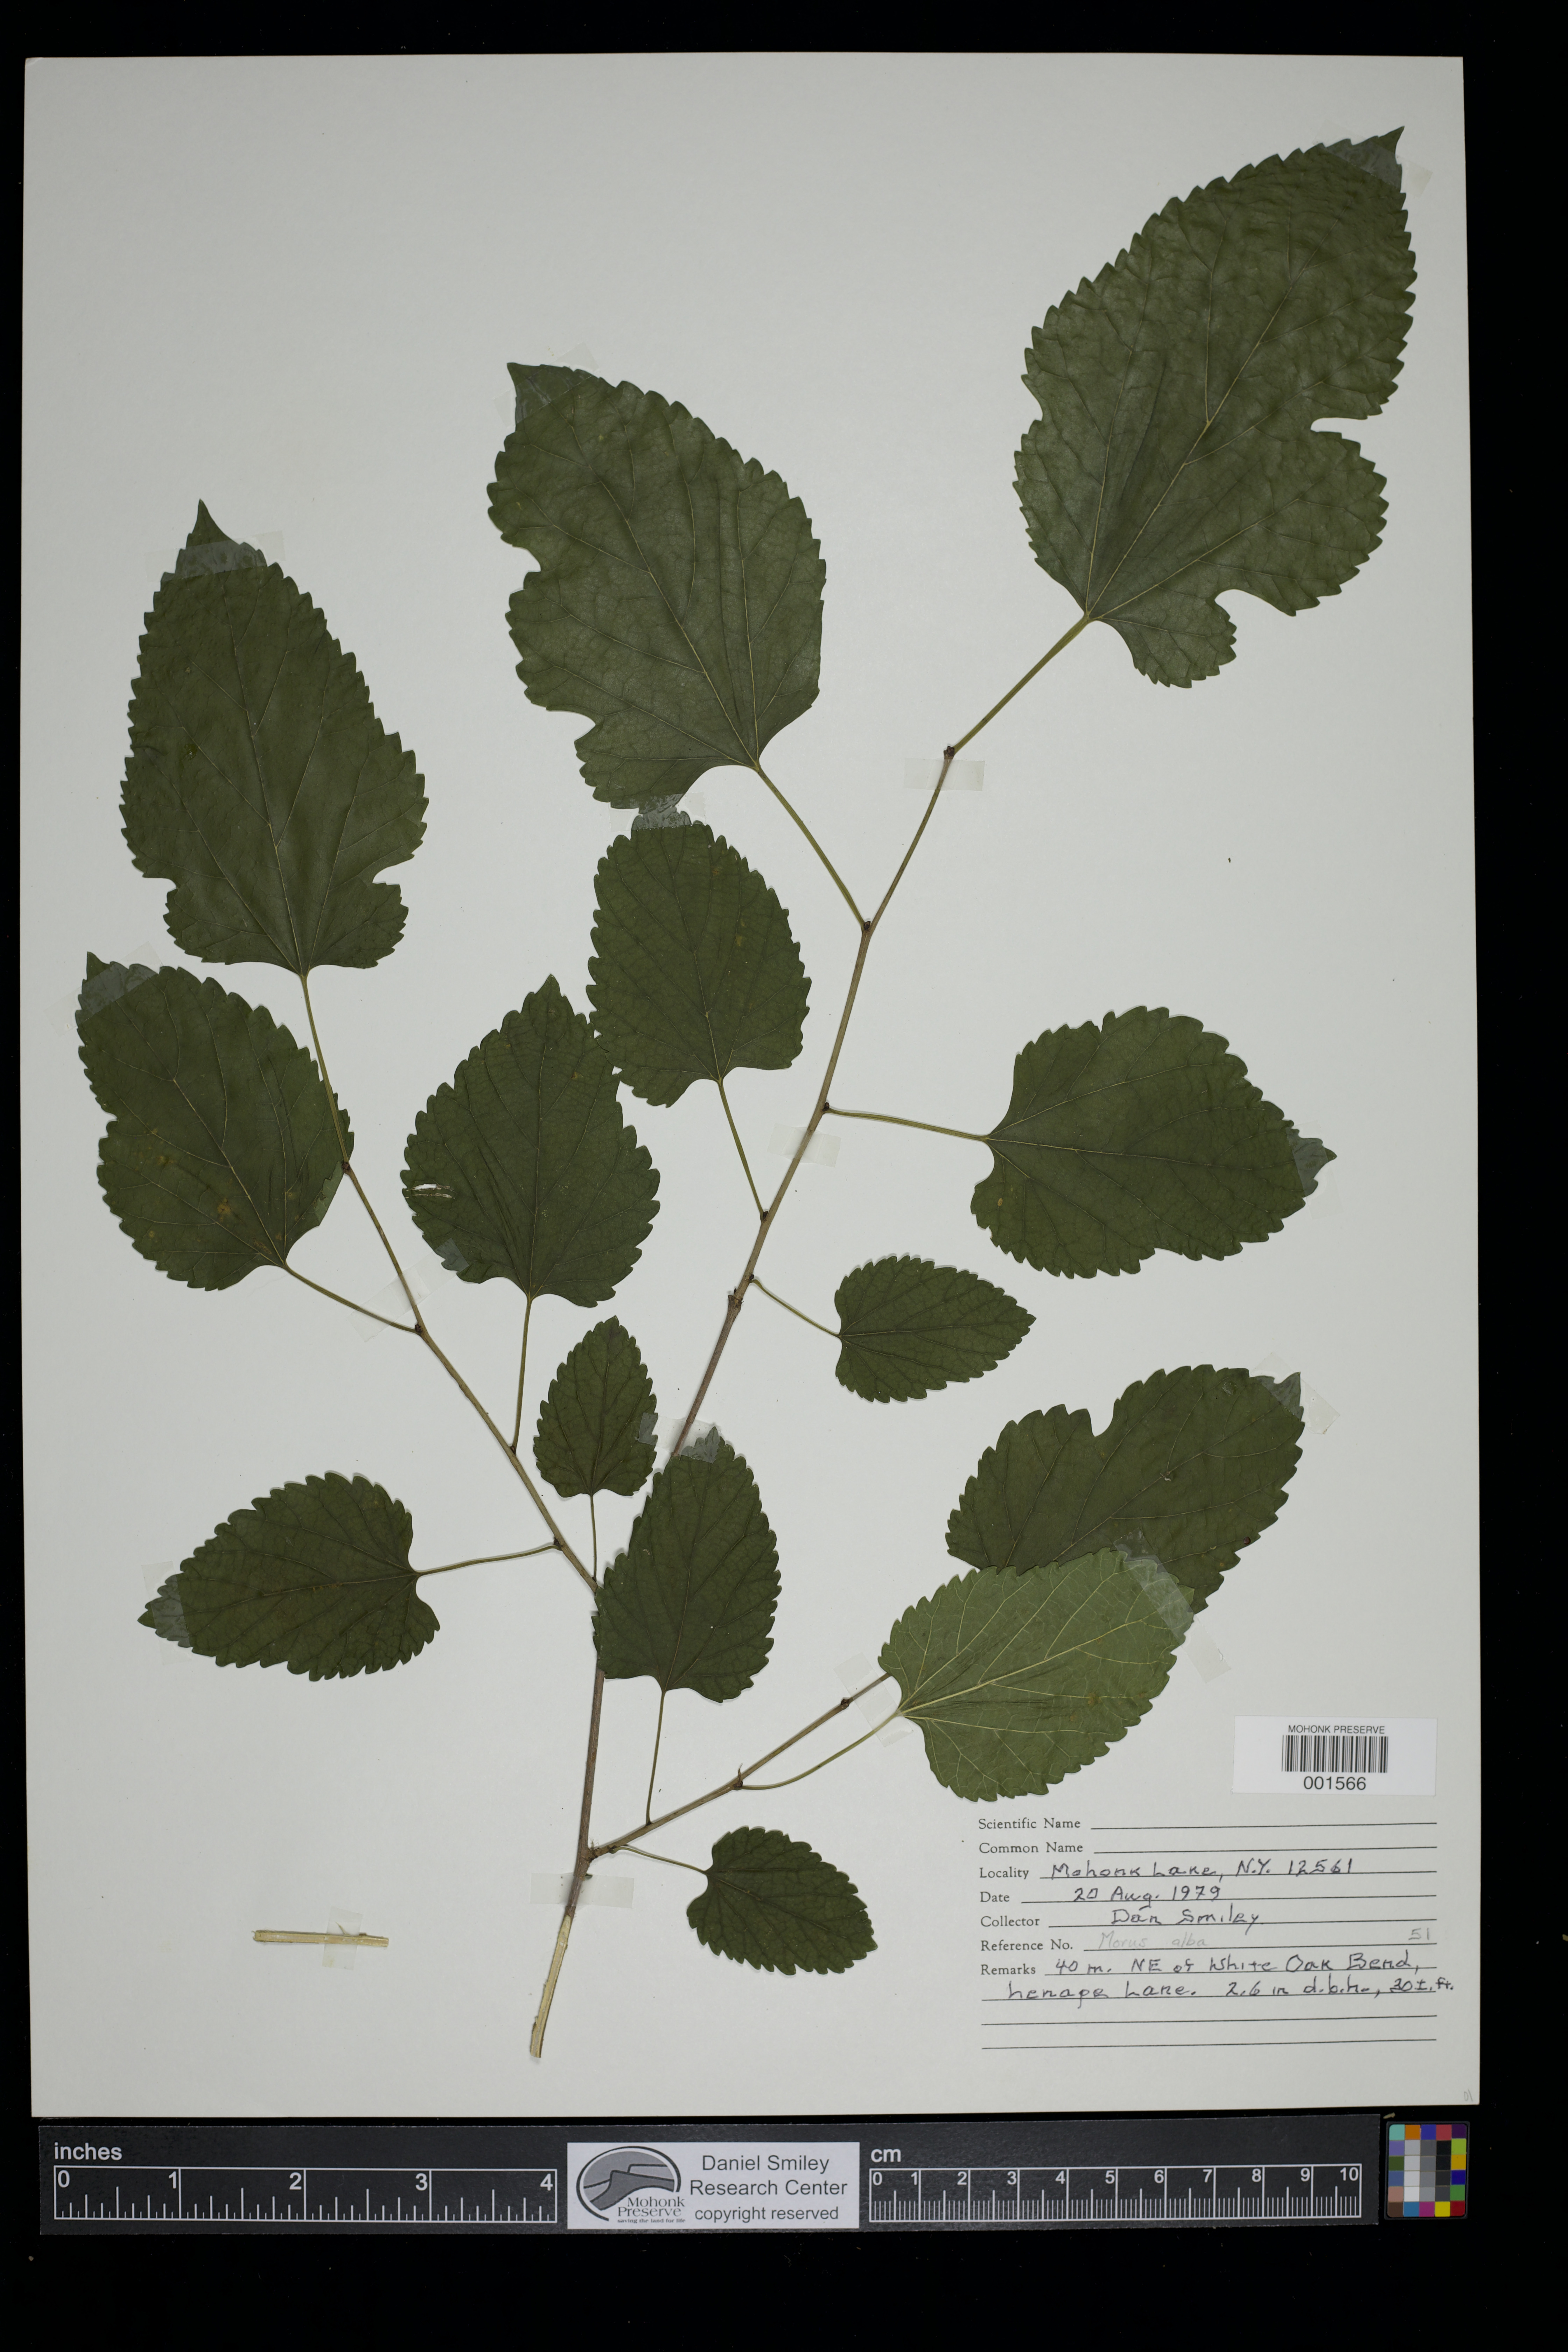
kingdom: Plantae
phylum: Tracheophyta
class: Magnoliopsida
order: Rosales
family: Moraceae
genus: Morus
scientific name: Morus alba
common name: White mulberry
